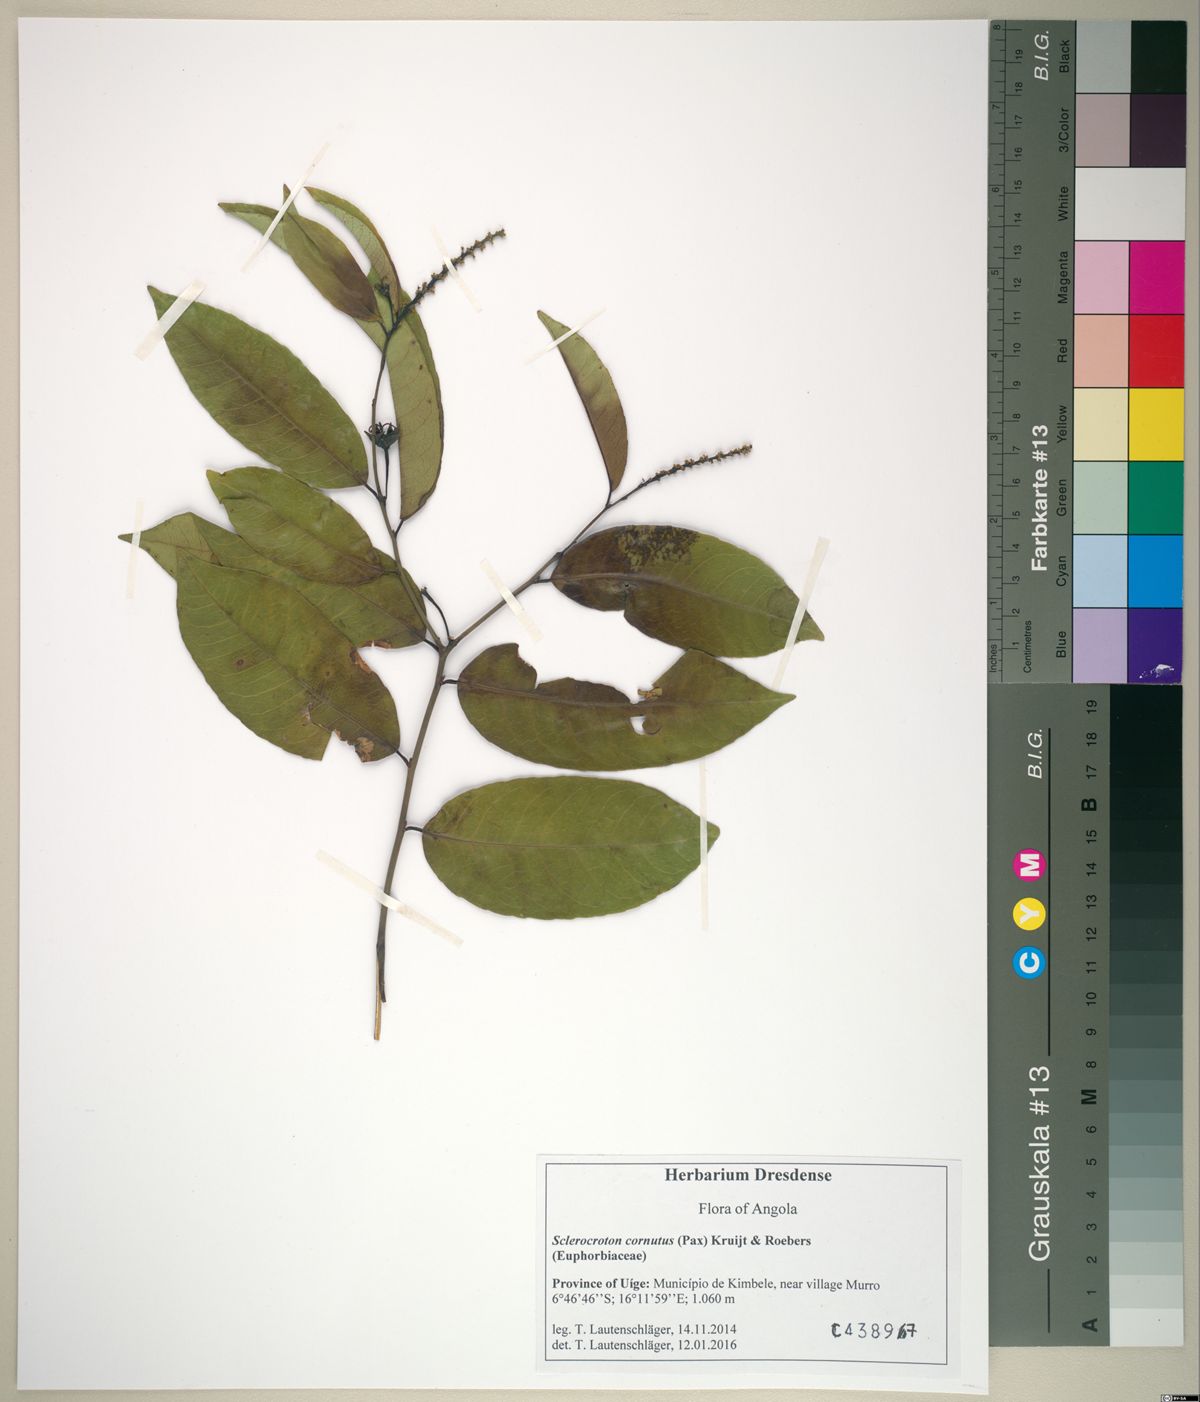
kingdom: Plantae
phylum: Tracheophyta
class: Magnoliopsida
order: Malpighiales
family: Euphorbiaceae
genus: Sclerocroton
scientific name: Sclerocroton cornutus
